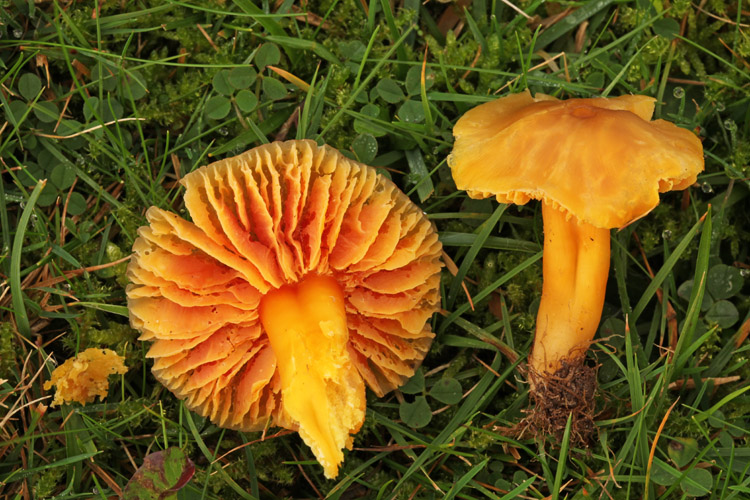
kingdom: Fungi
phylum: Basidiomycota
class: Agaricomycetes
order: Agaricales
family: Hygrophoraceae
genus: Hygrocybe
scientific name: Hygrocybe quieta
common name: tæge-vokshat
